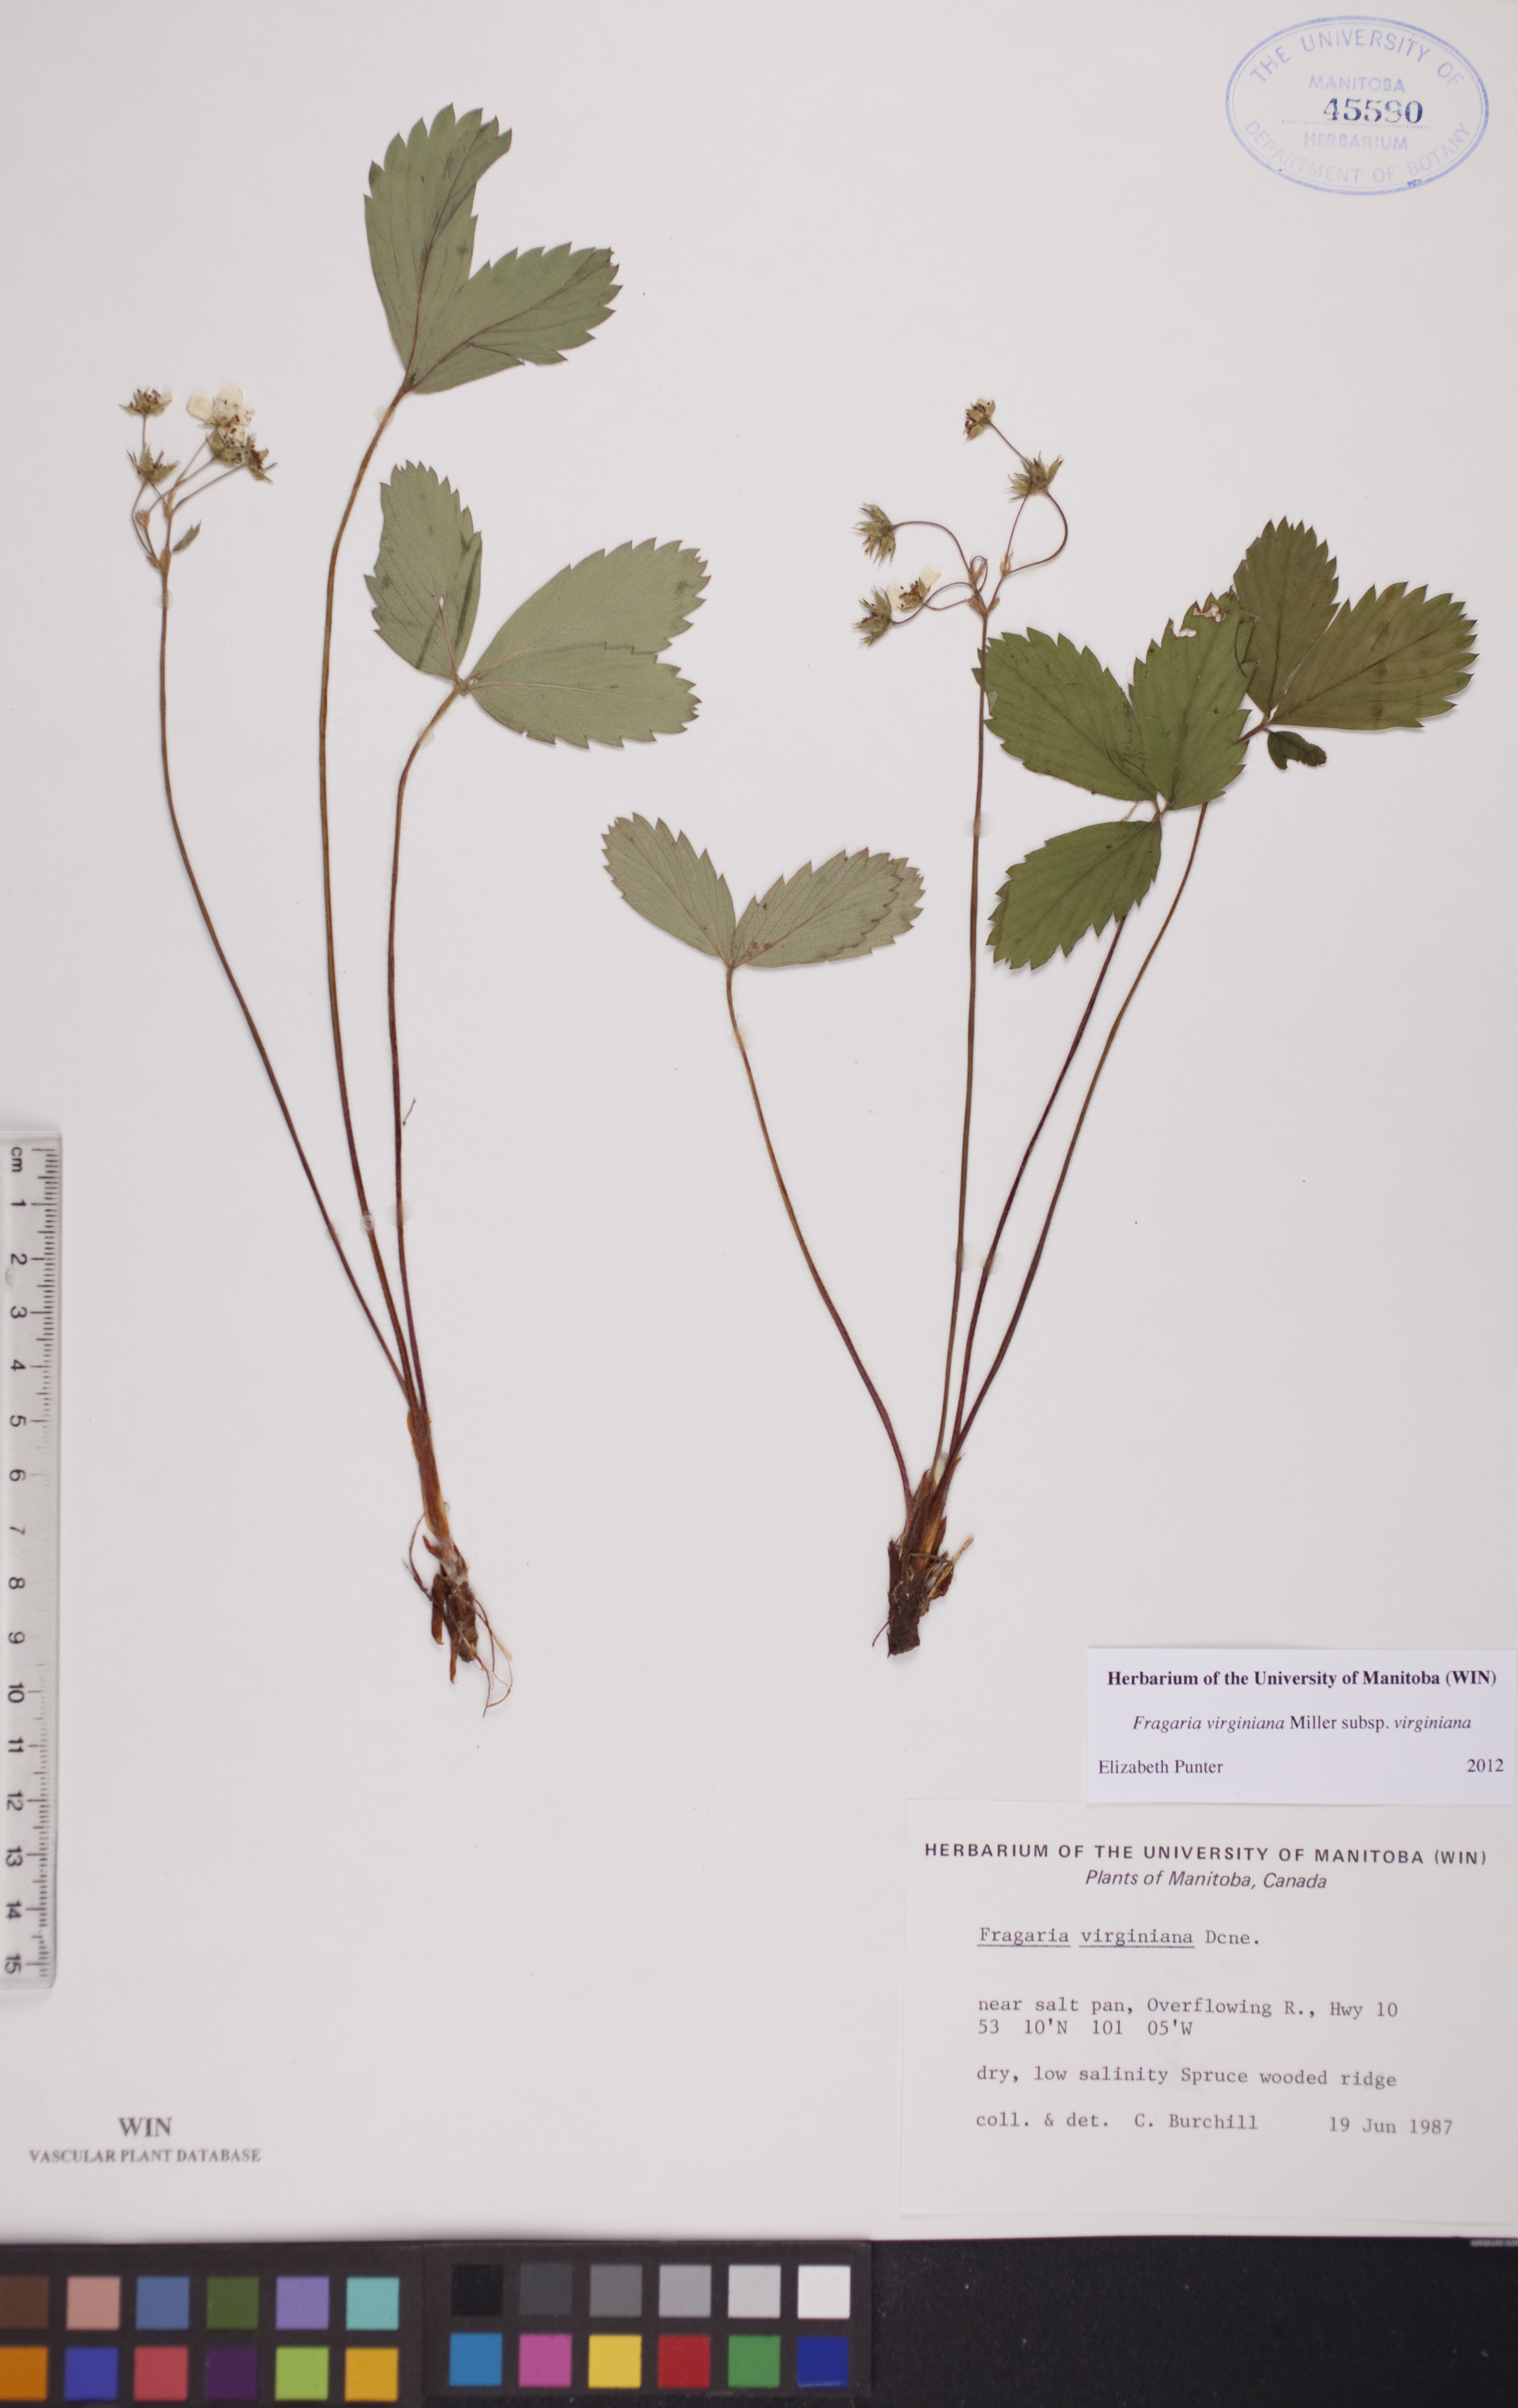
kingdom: Plantae
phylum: Tracheophyta
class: Magnoliopsida
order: Rosales
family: Rosaceae
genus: Fragaria
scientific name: Fragaria virginiana
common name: Thickleaved wild strawberry
